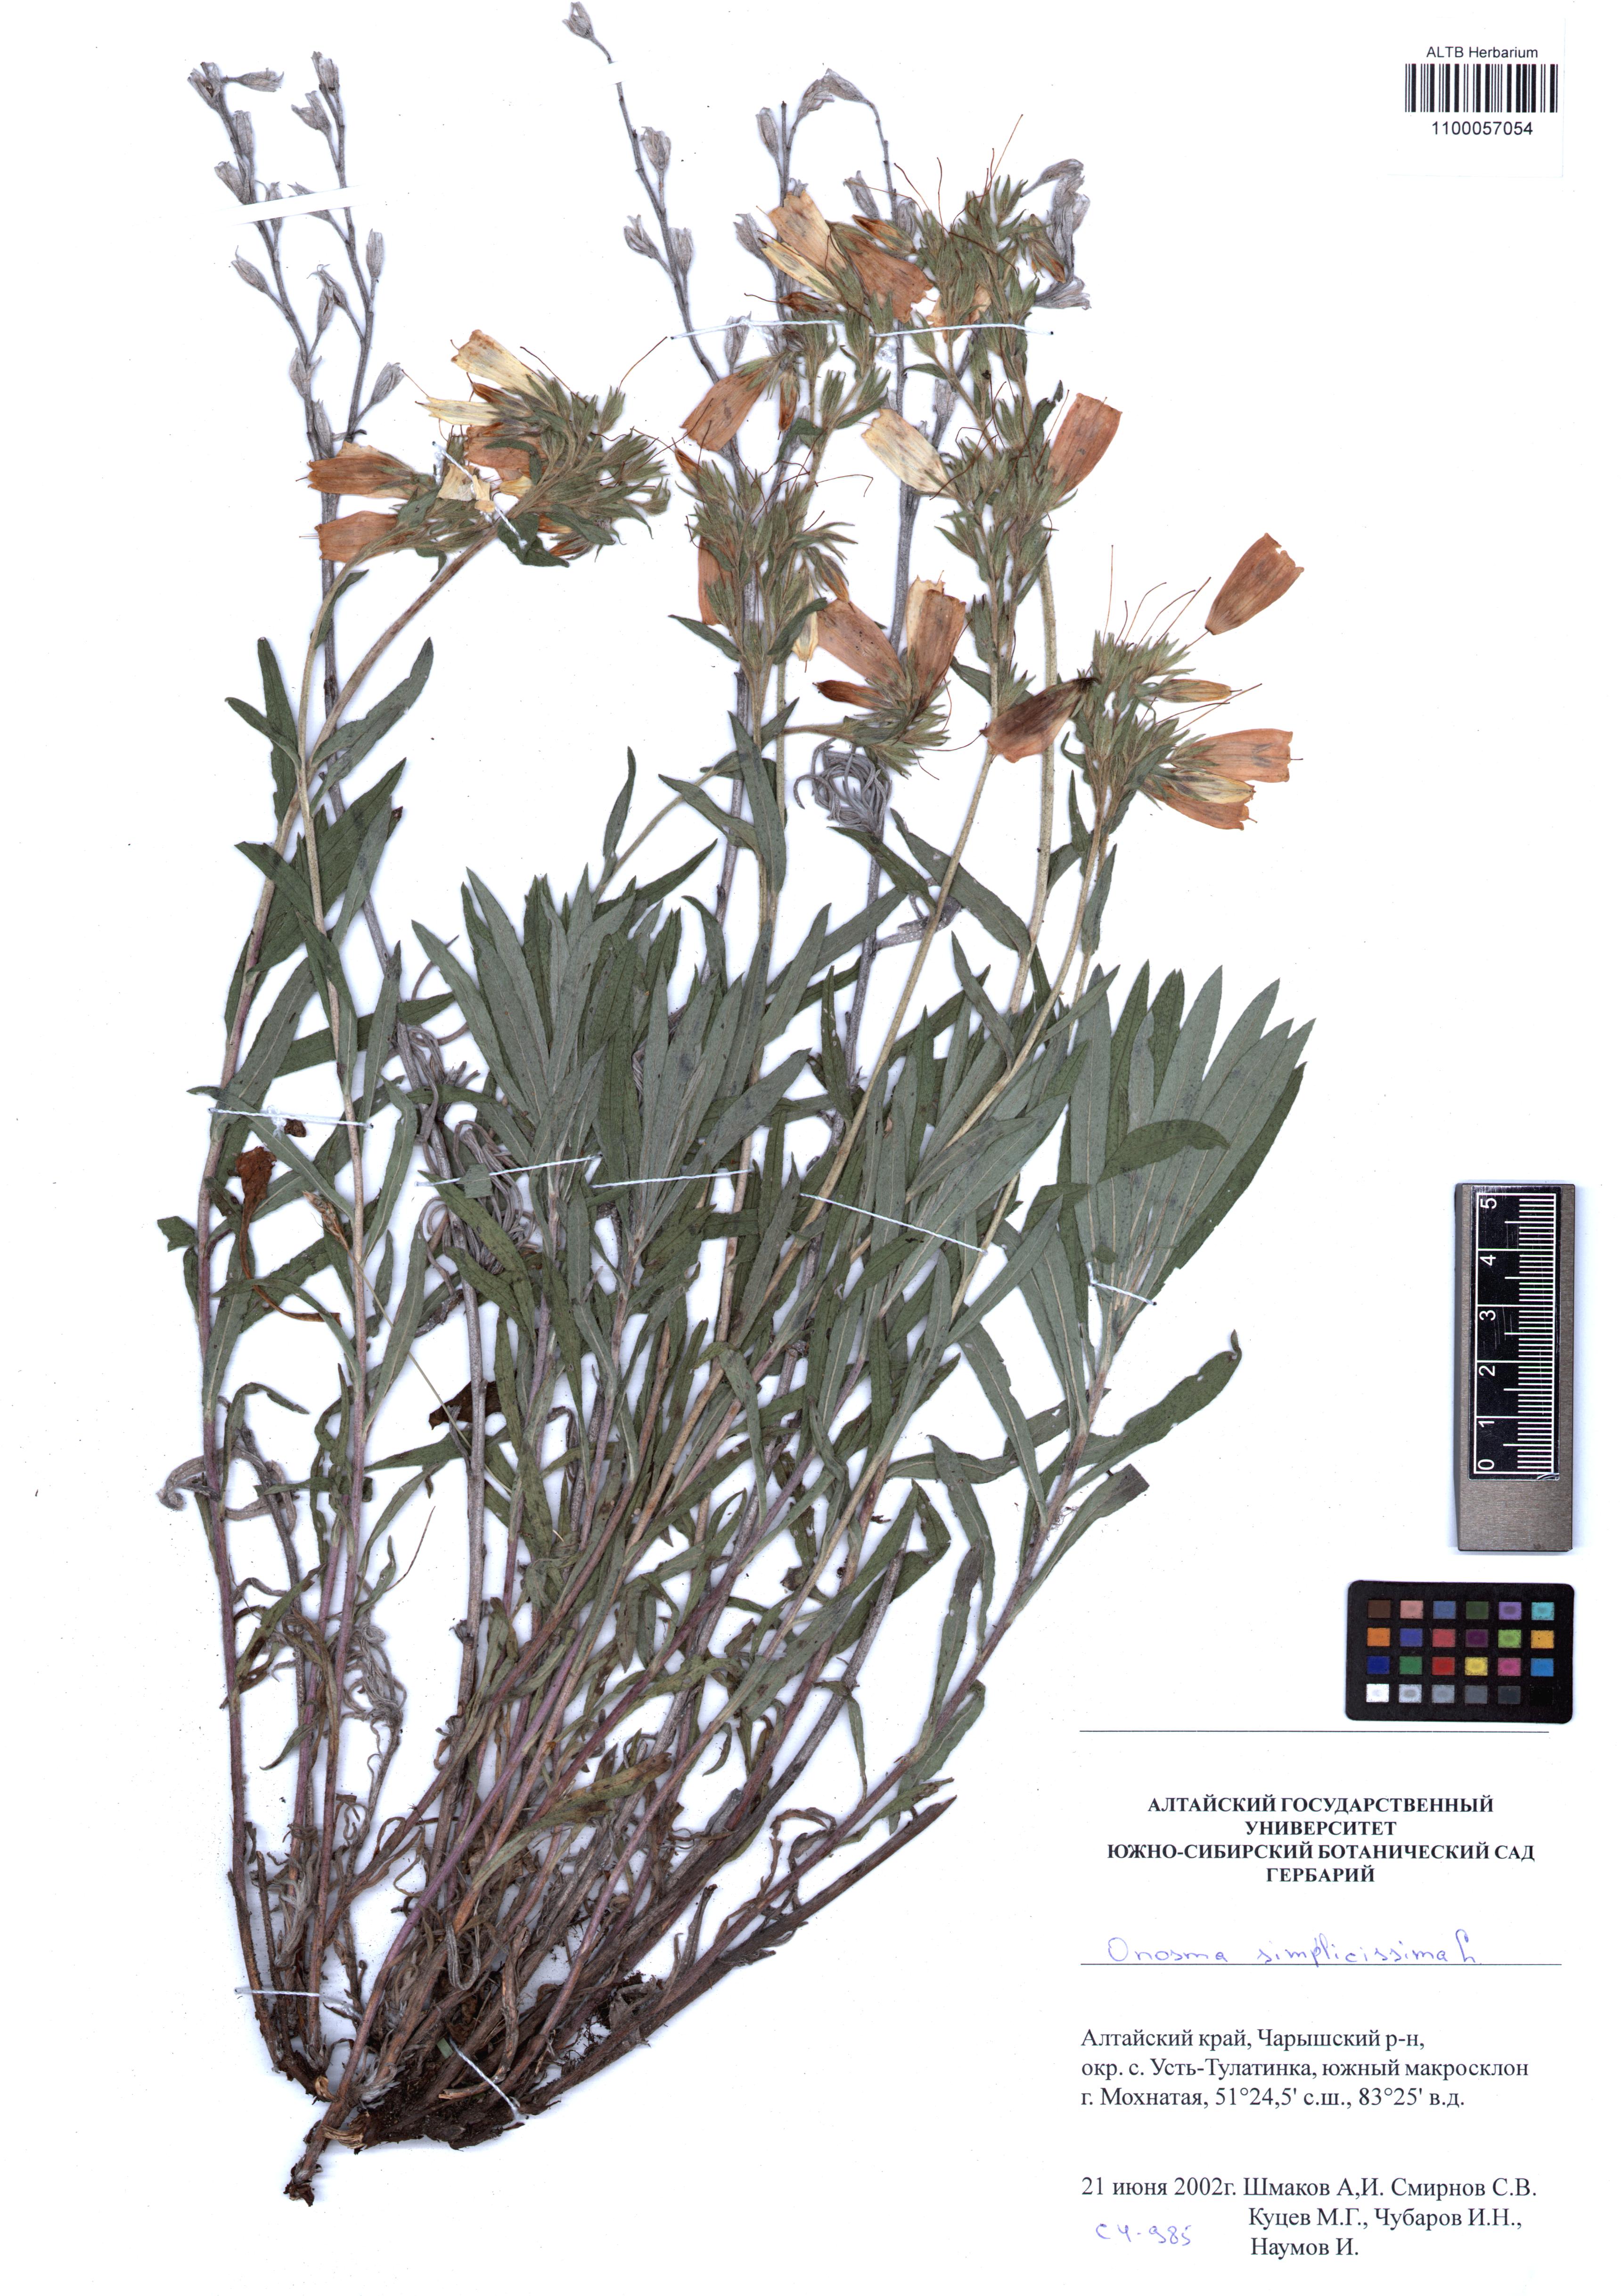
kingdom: Plantae
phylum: Tracheophyta
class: Magnoliopsida
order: Boraginales
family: Boraginaceae
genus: Onosma
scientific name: Onosma simplicissima
